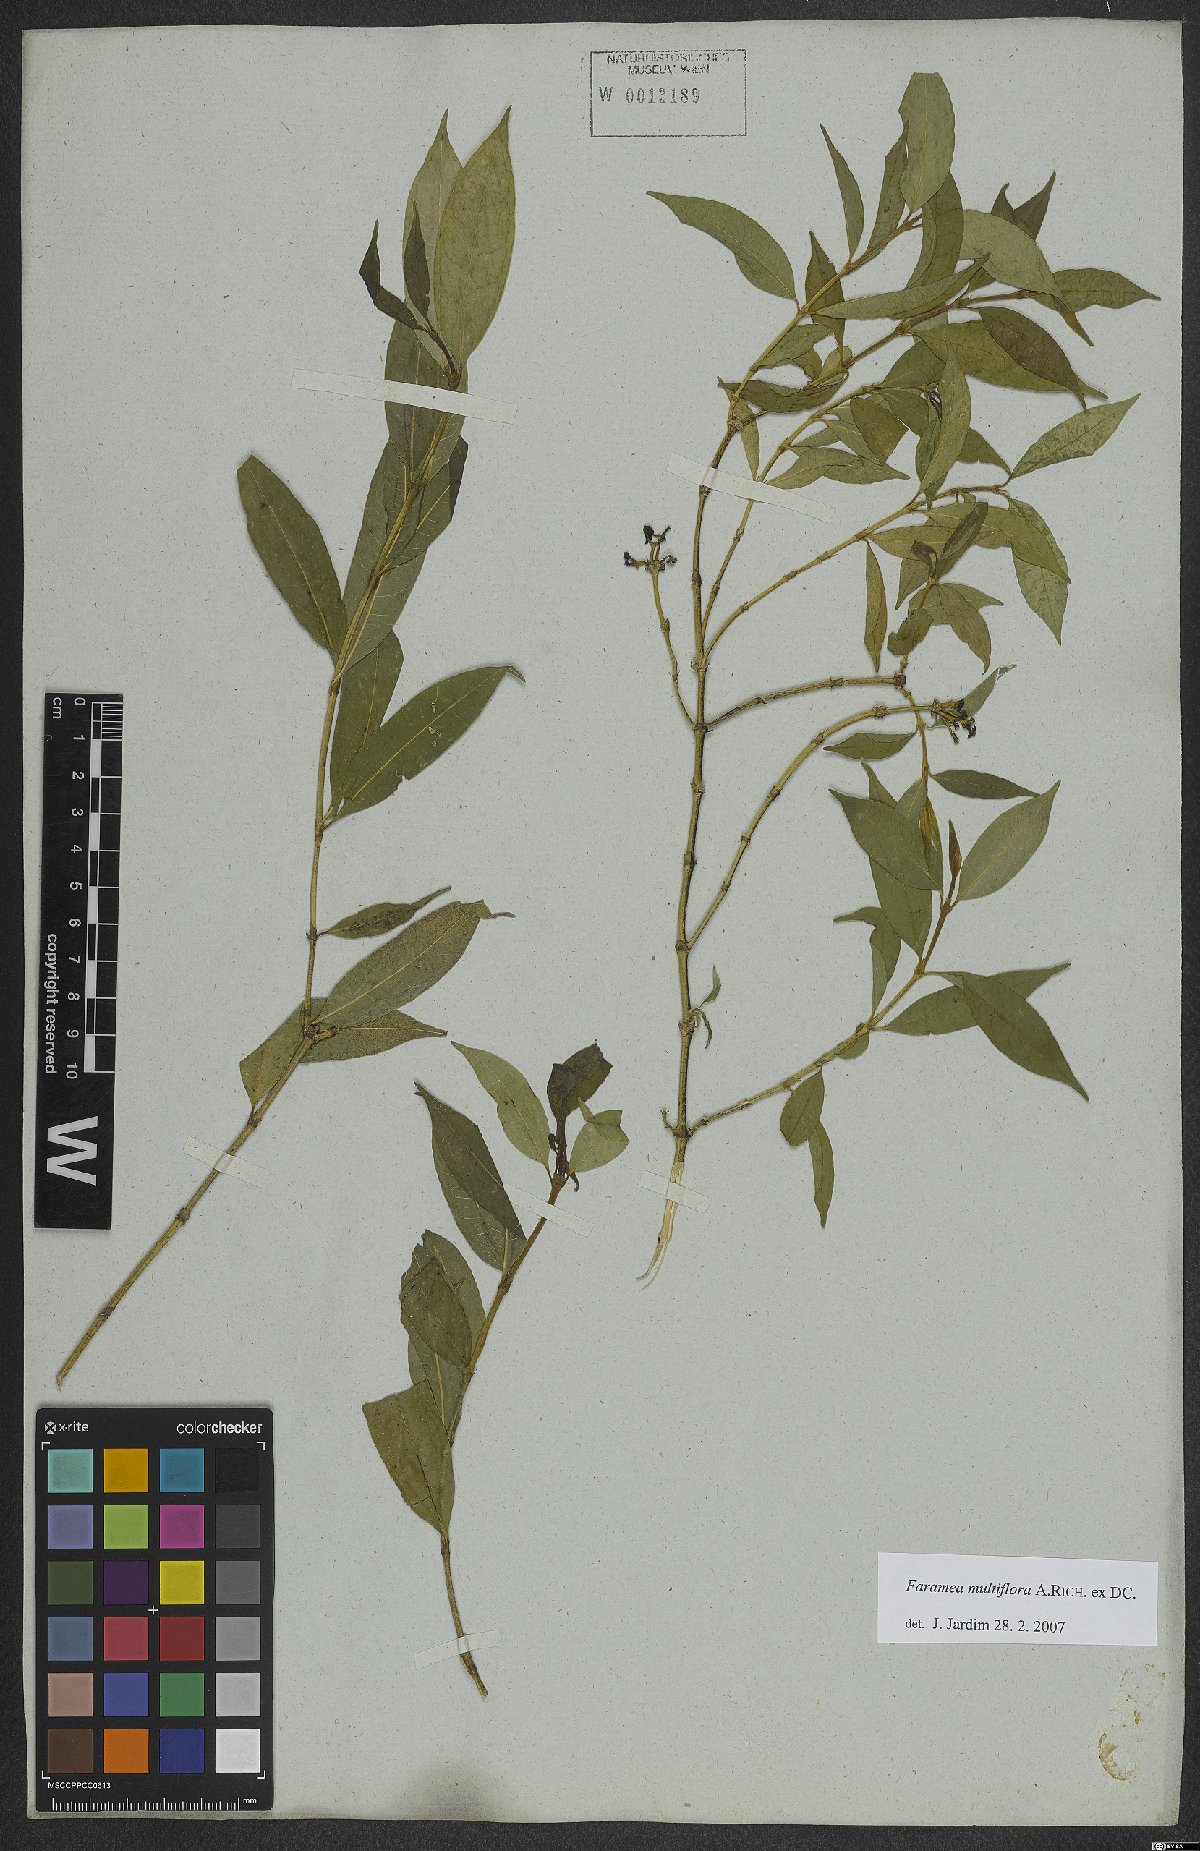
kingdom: Plantae
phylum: Tracheophyta
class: Magnoliopsida
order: Gentianales
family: Rubiaceae
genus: Faramea
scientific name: Faramea multiflora
